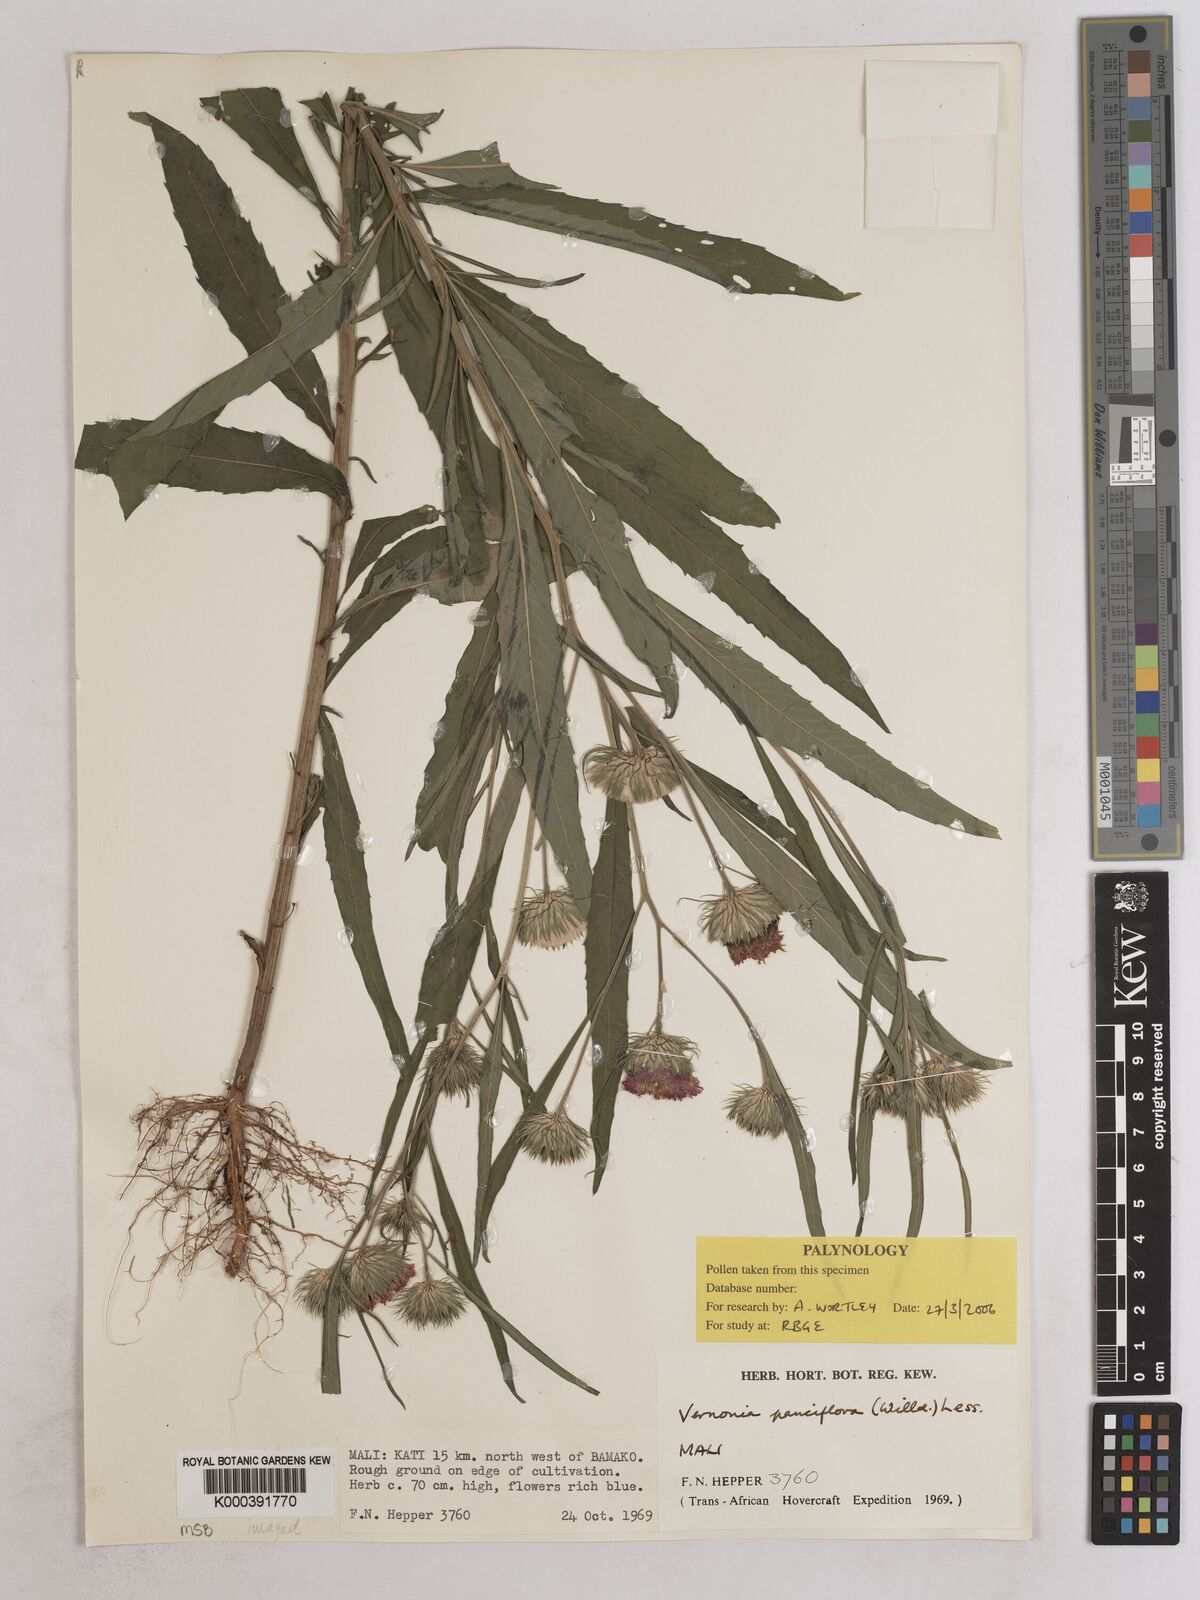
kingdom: Plantae
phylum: Tracheophyta
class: Magnoliopsida
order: Asterales
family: Asteraceae
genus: Vernonia
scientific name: Vernonia galamensis
